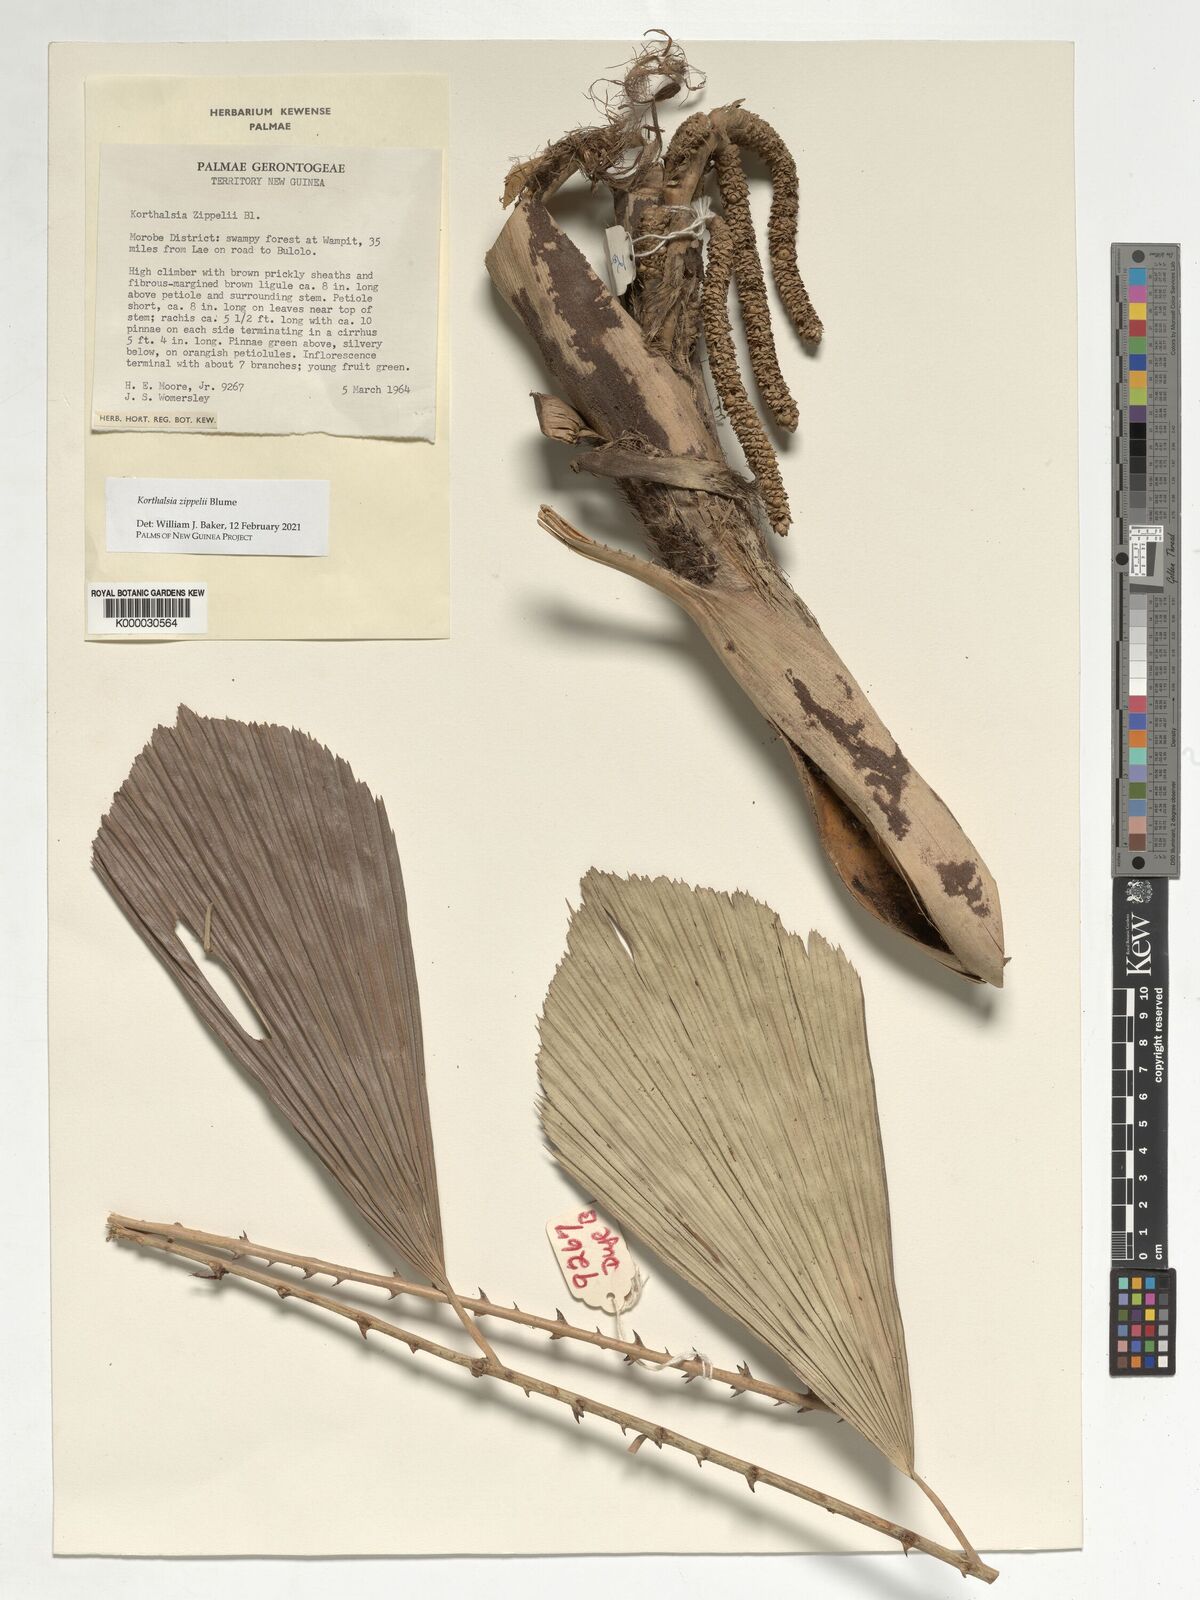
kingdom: Plantae
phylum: Tracheophyta
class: Liliopsida
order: Arecales
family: Arecaceae
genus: Korthalsia
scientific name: Korthalsia zippelii
